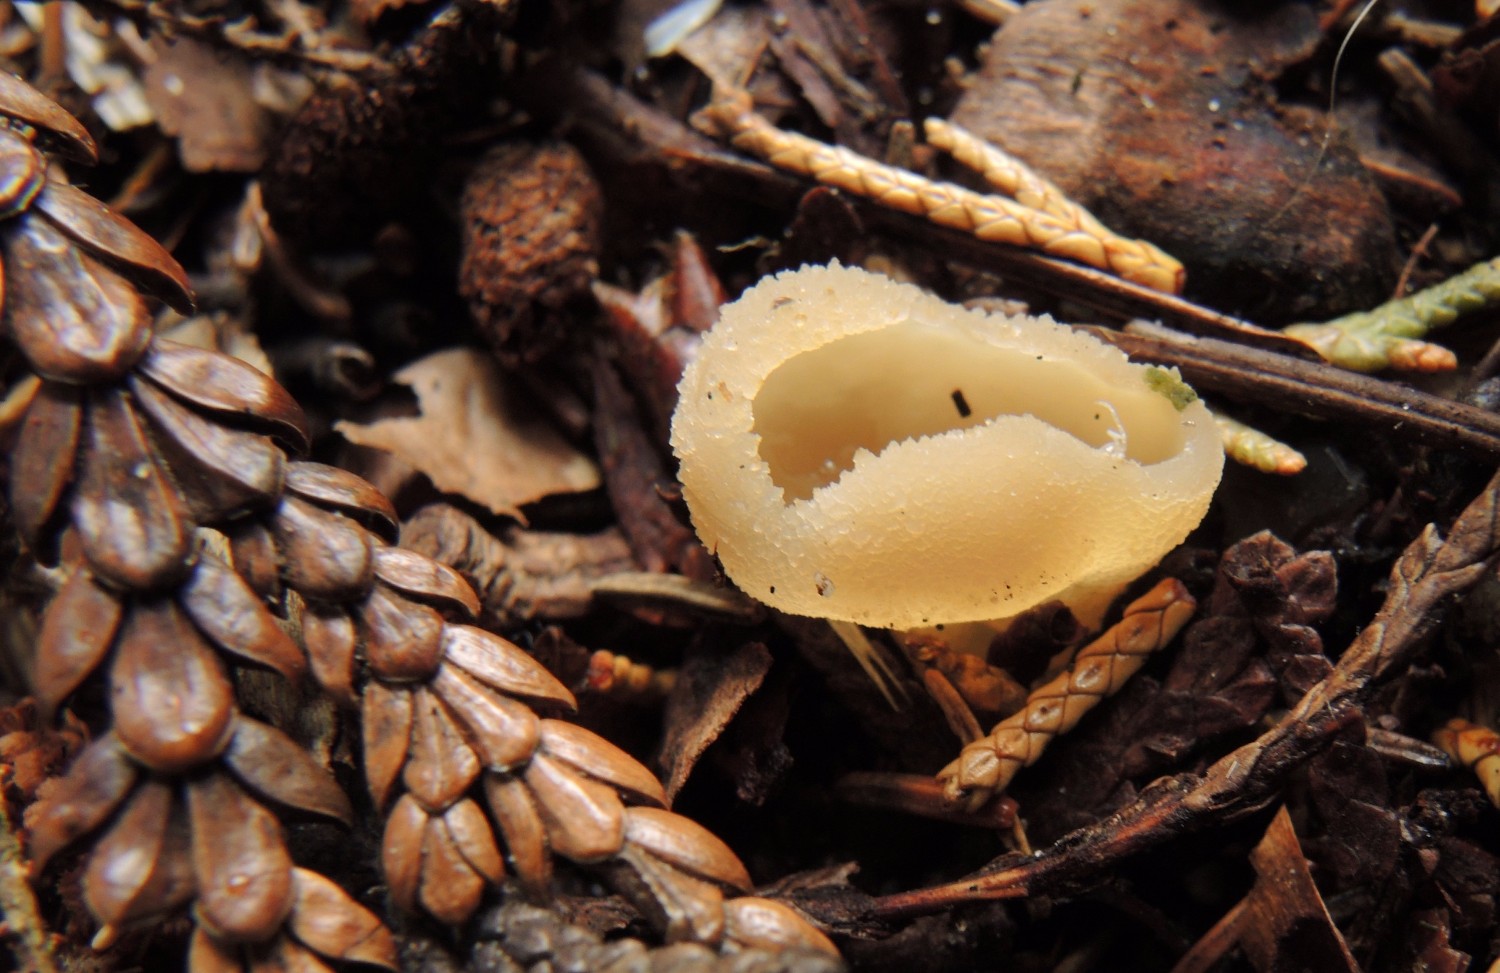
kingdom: Fungi
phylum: Ascomycota
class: Pezizomycetes
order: Pezizales
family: Pyronemataceae
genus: Sowerbyella
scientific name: Sowerbyella radiculata
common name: grøngul rodbæger
